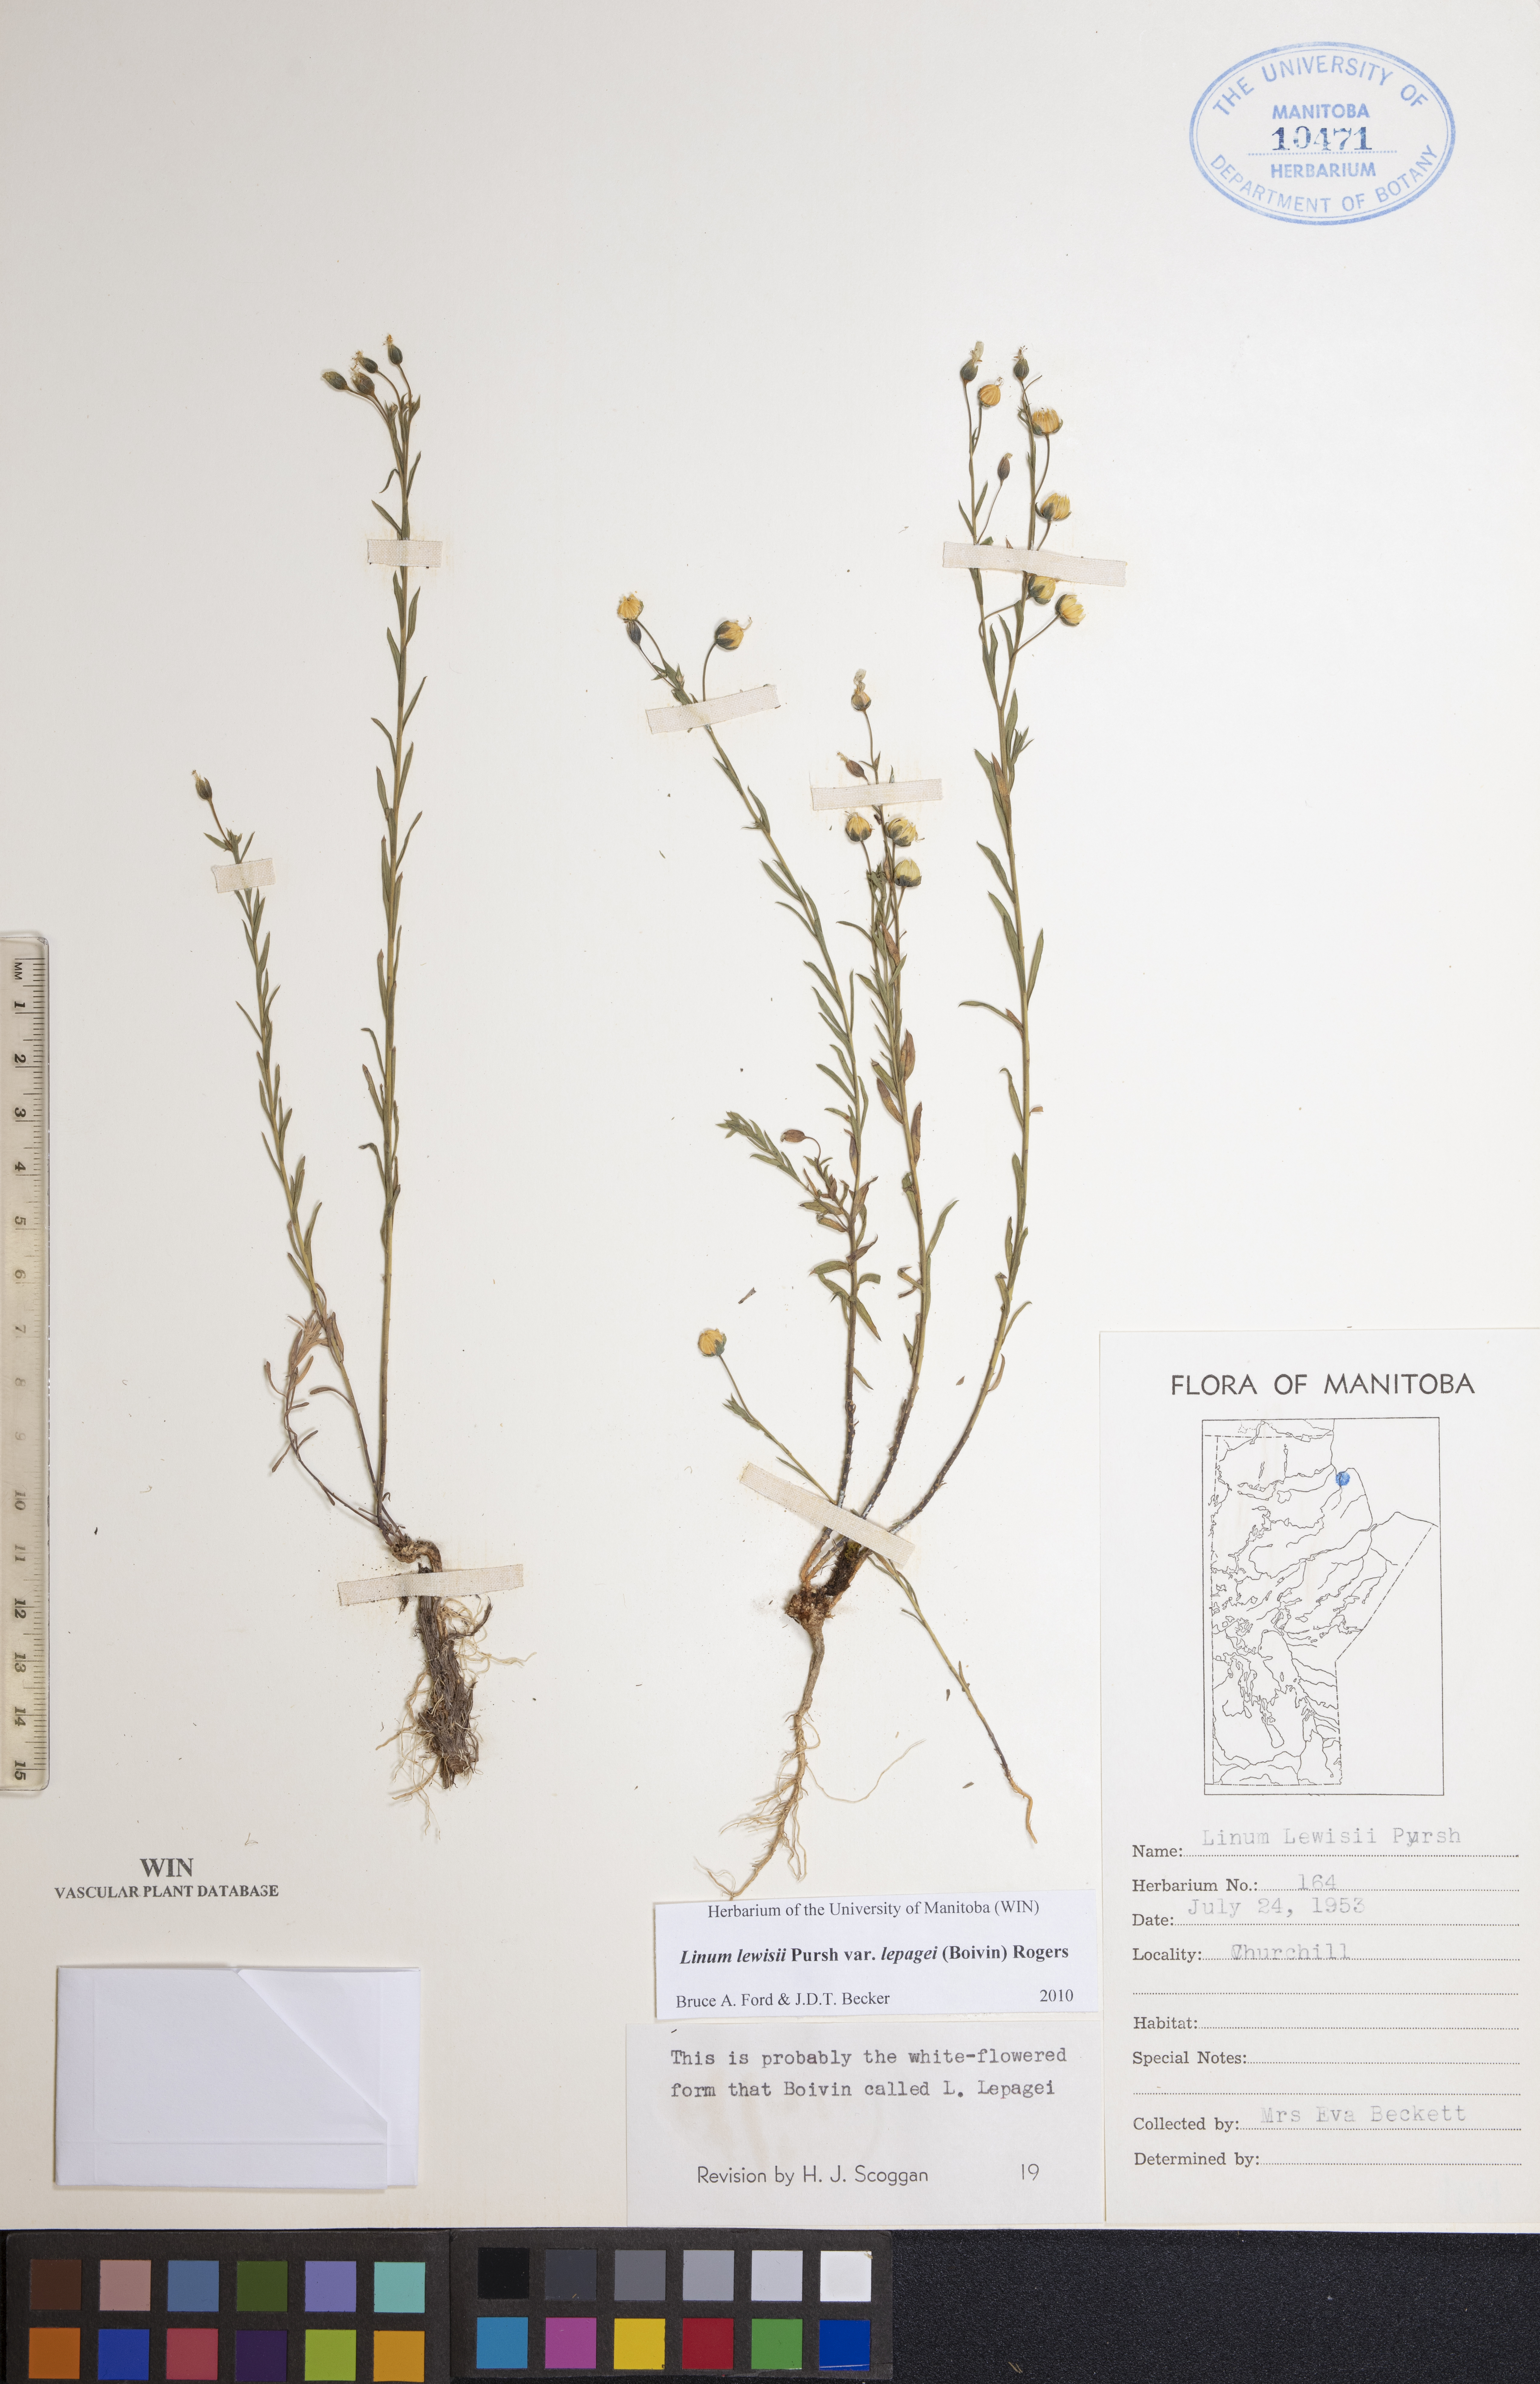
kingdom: Plantae
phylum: Tracheophyta
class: Magnoliopsida
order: Malpighiales
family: Linaceae
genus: Linum
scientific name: Linum lewisii
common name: Prairie flax
